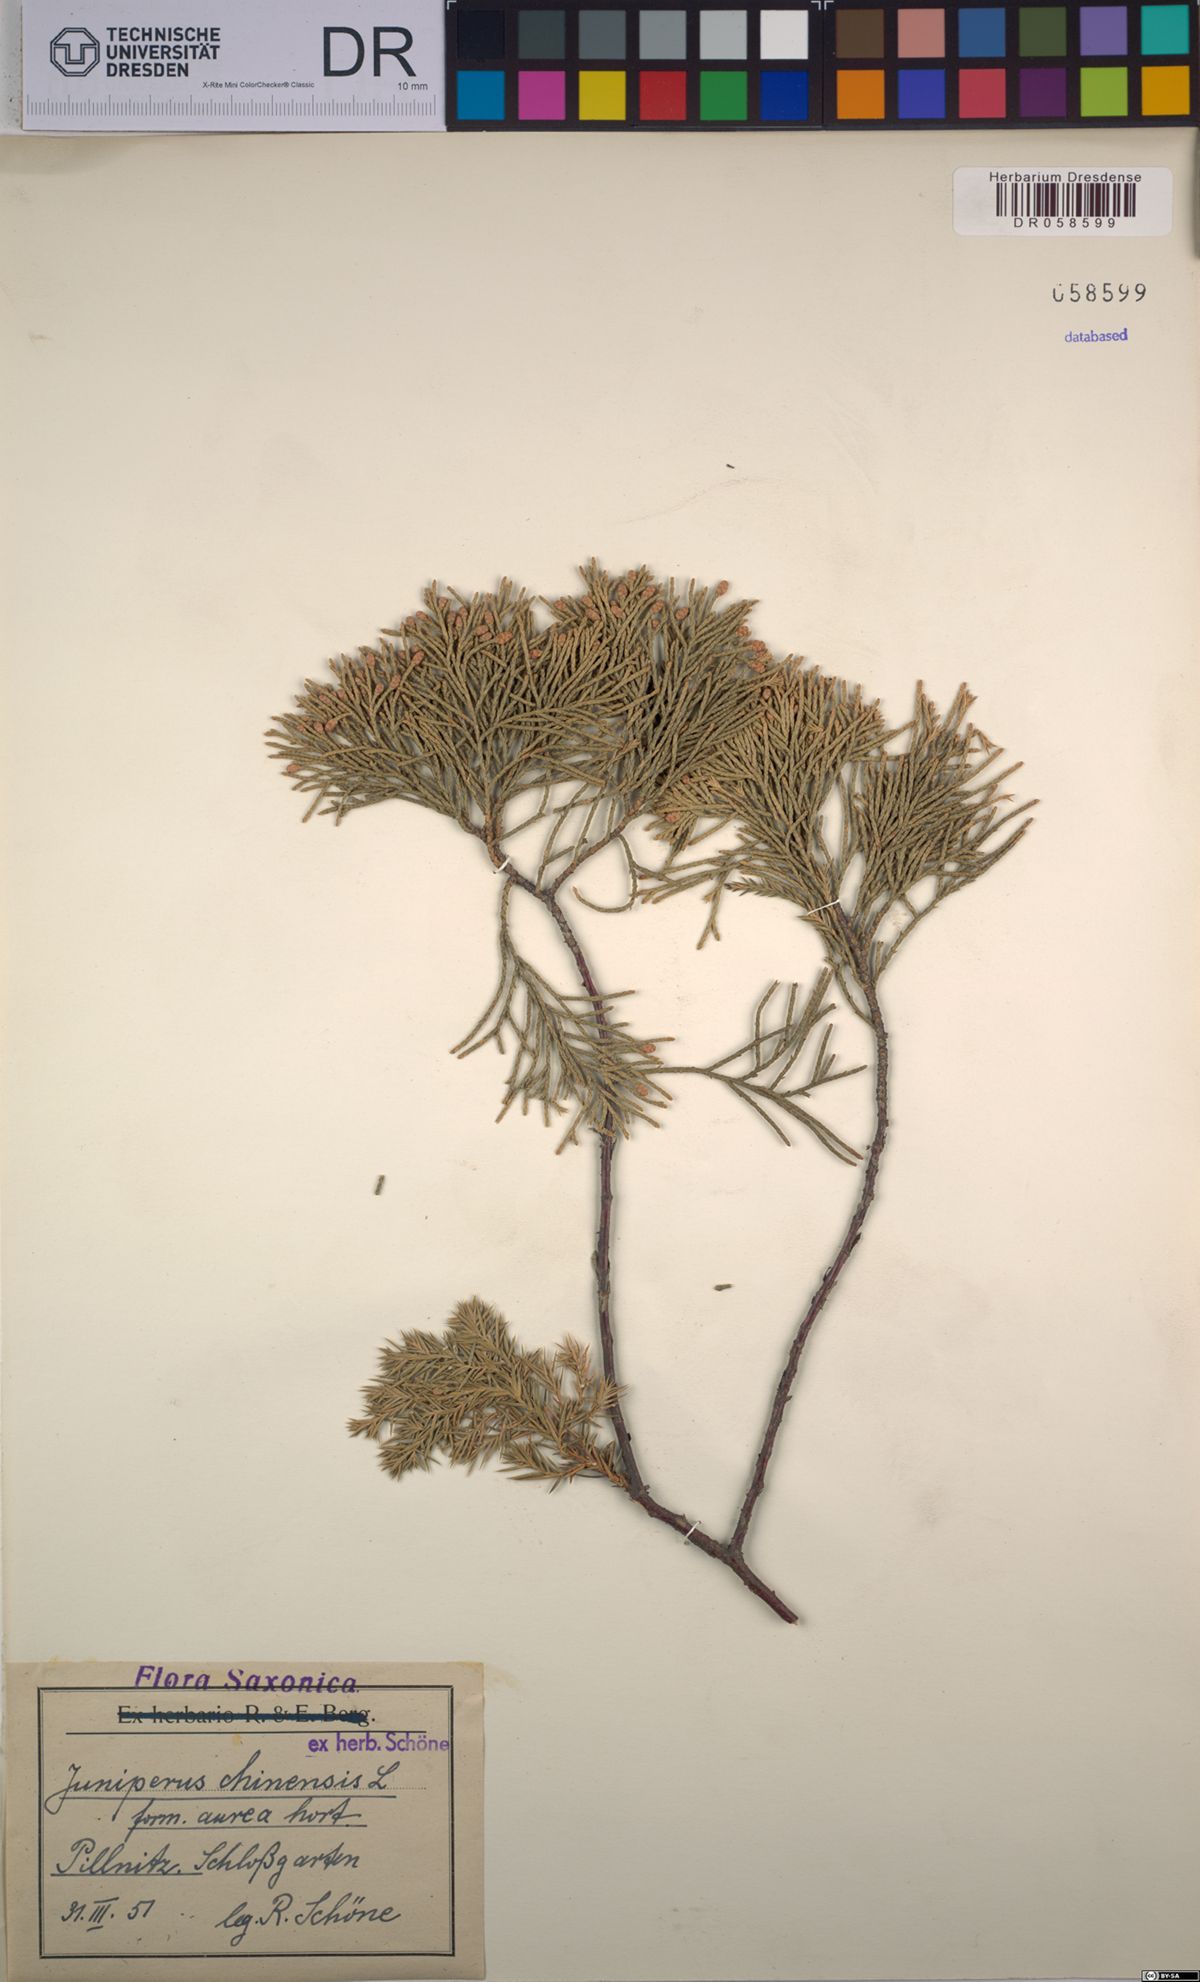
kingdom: Plantae
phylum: Tracheophyta
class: Pinopsida
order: Pinales
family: Cupressaceae
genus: Juniperus
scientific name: Juniperus chinensis
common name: Chinese juniper
